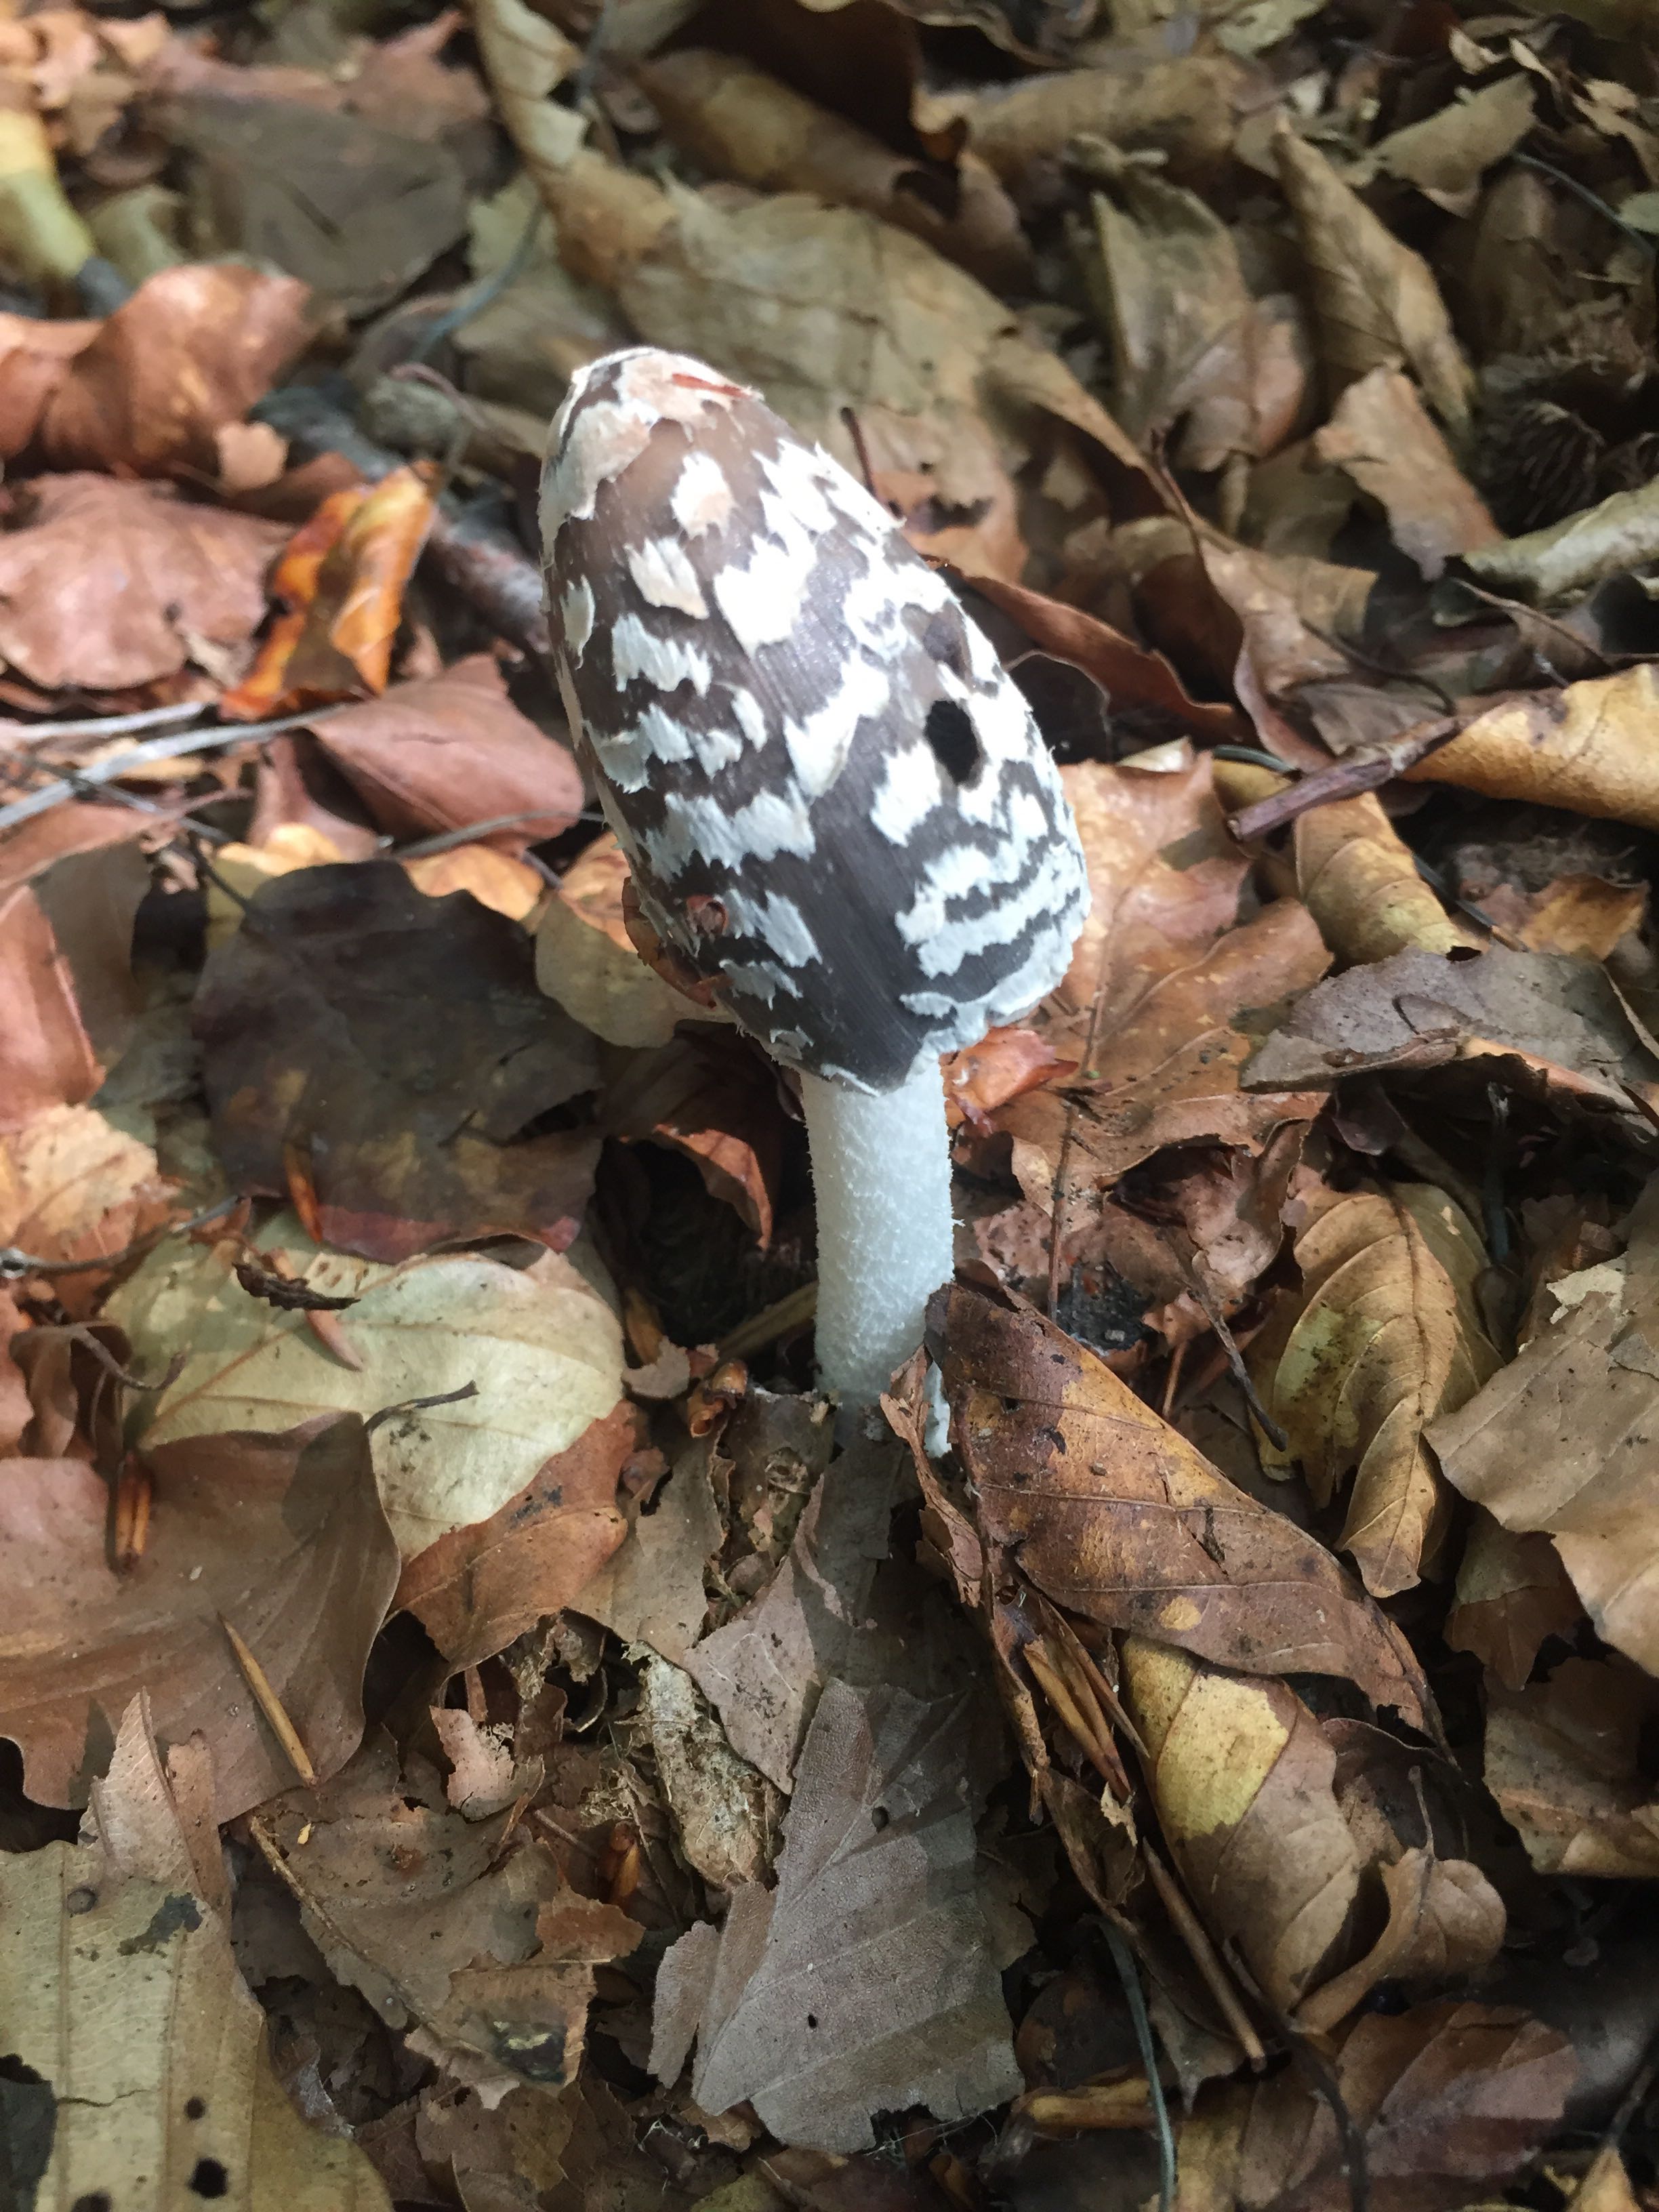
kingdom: Fungi
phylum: Basidiomycota
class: Agaricomycetes
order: Agaricales
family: Psathyrellaceae
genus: Coprinopsis
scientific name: Coprinopsis picacea
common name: skade-blækhat
